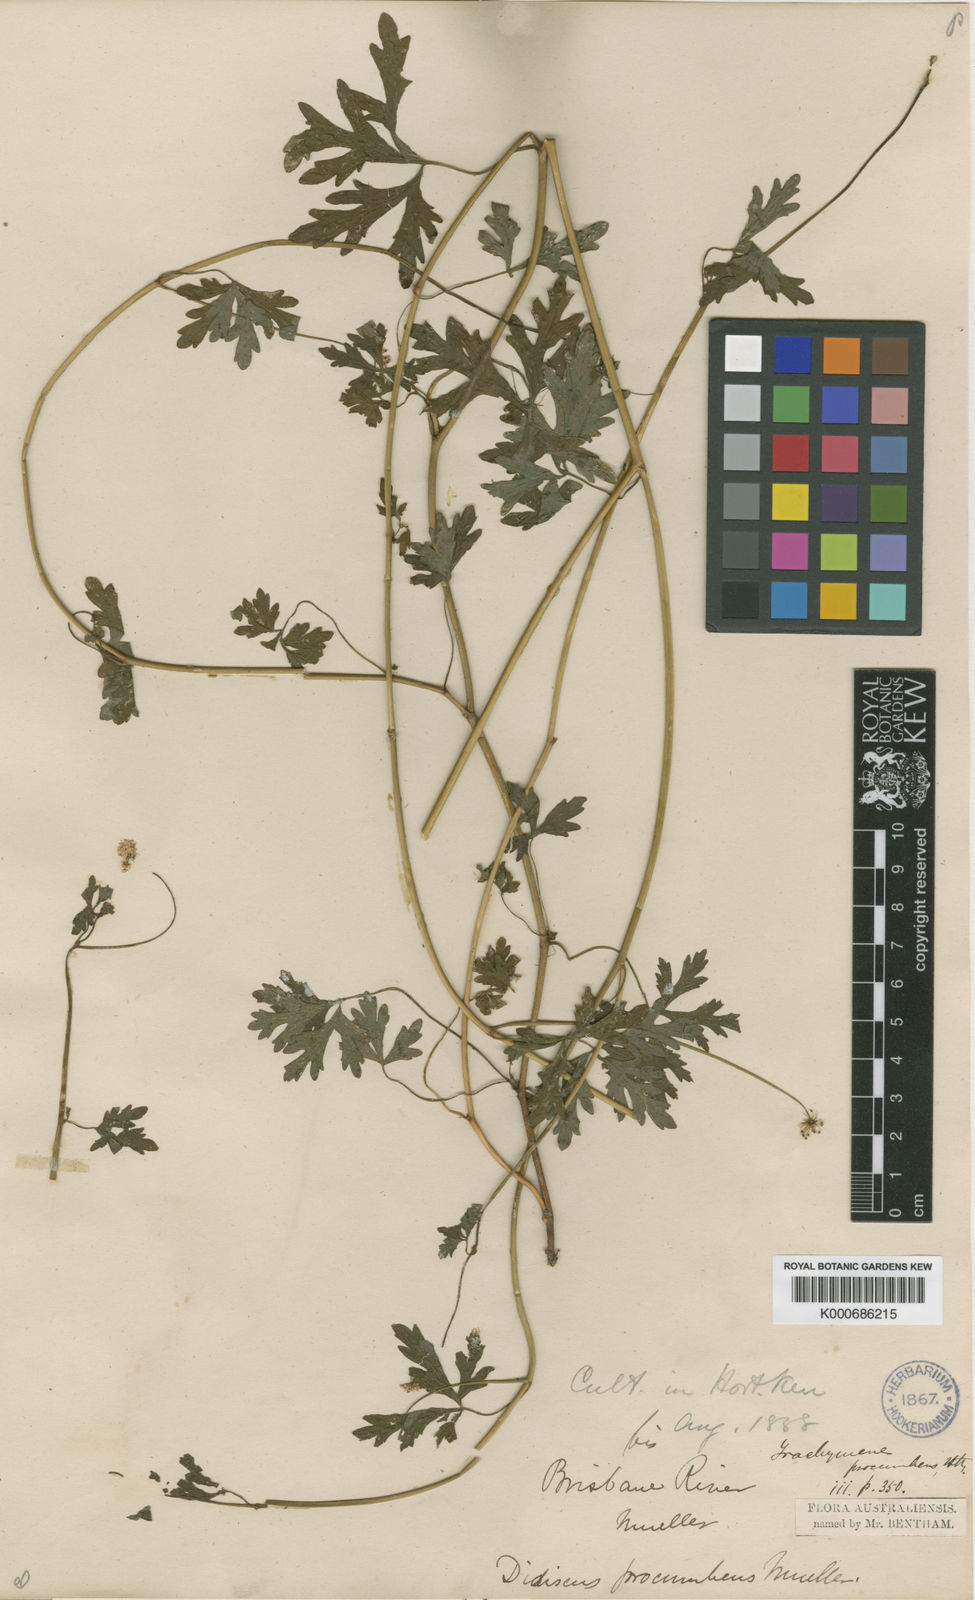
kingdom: Plantae
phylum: Tracheophyta
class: Magnoliopsida
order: Apiales
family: Araliaceae
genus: Trachymene
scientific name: Trachymene procumbens
